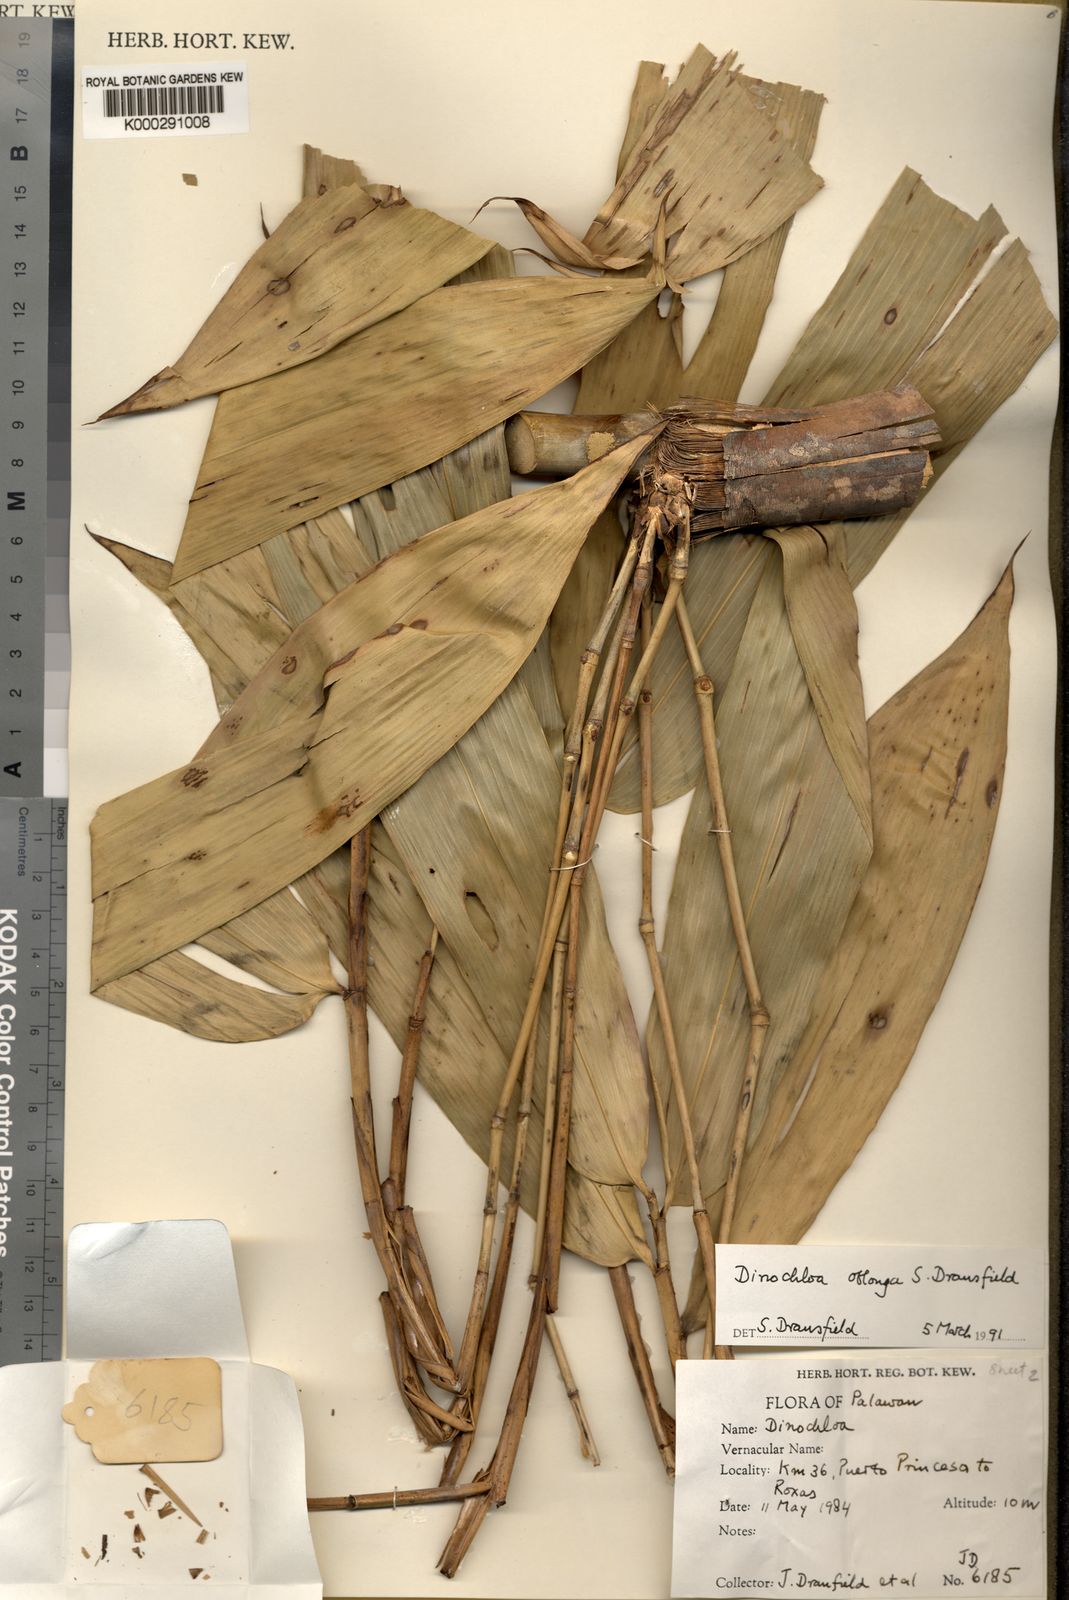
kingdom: Plantae
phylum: Tracheophyta
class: Liliopsida
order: Poales
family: Poaceae
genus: Dinochloa
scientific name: Dinochloa oblonga
